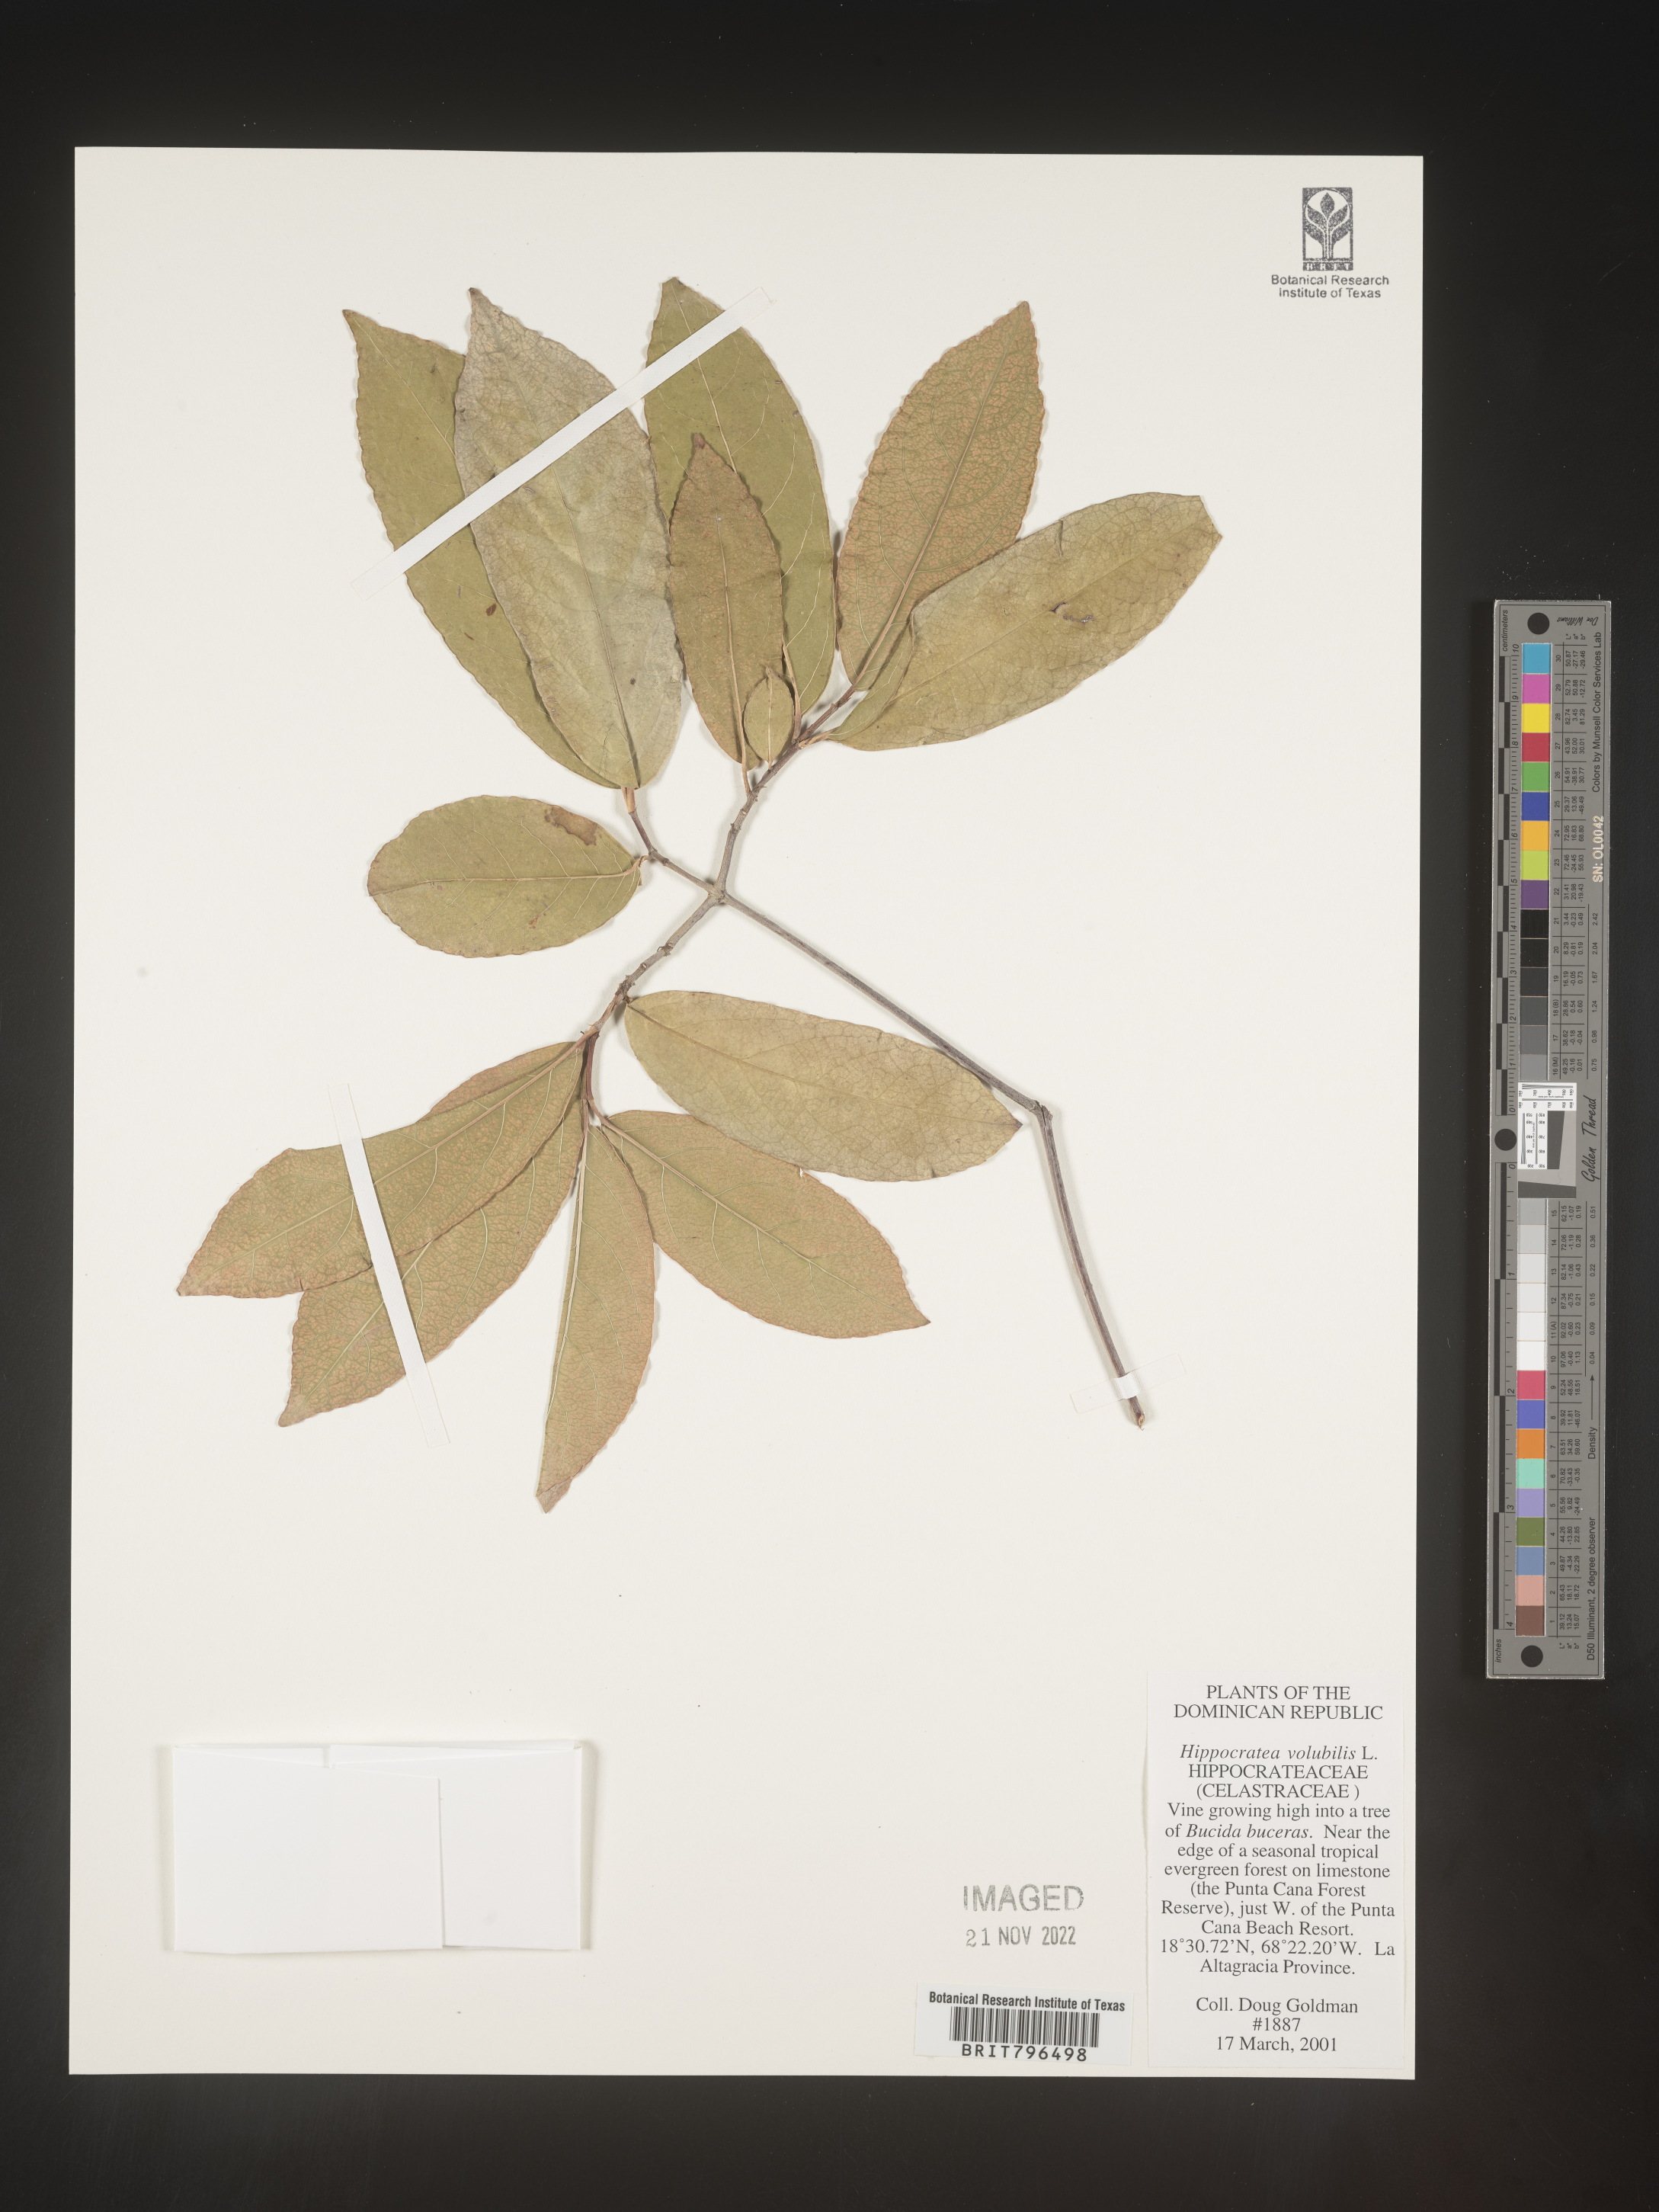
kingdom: Plantae
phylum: Tracheophyta
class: Magnoliopsida
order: Celastrales
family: Celastraceae
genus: Hippocratea
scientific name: Hippocratea volubilis
